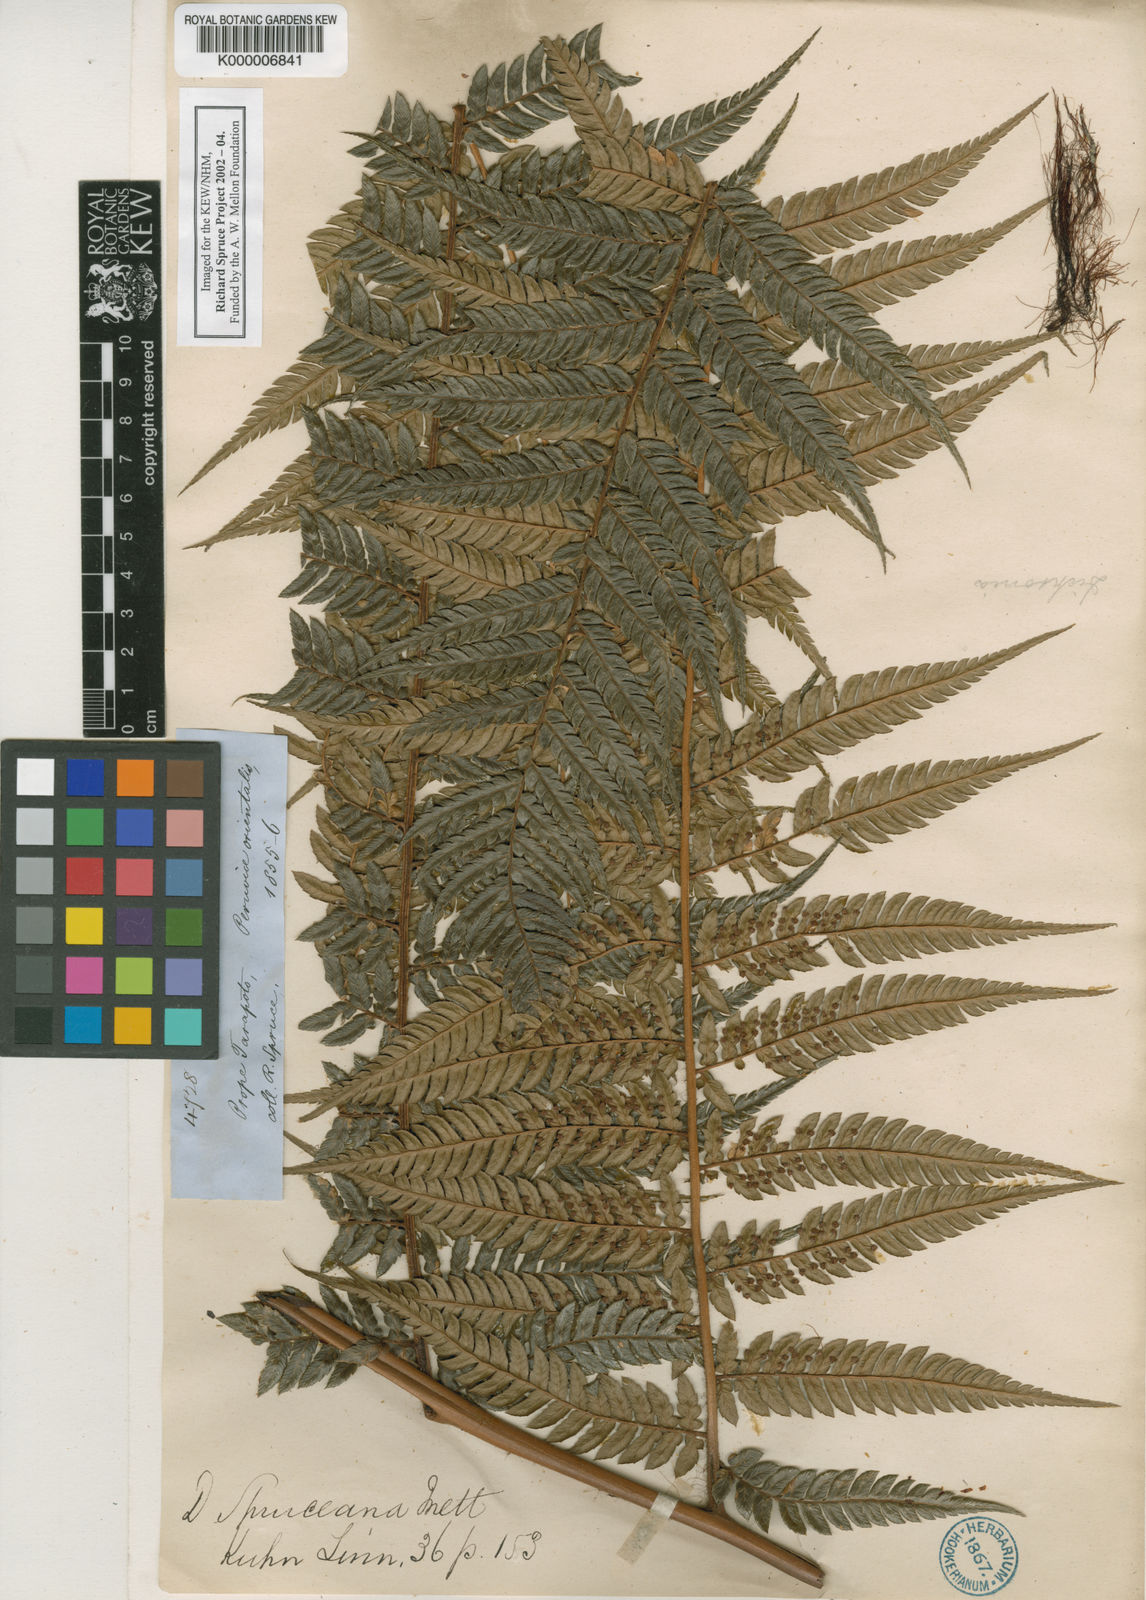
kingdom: Plantae
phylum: Tracheophyta
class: Polypodiopsida
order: Cyatheales
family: Dicksoniaceae
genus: Dicksonia
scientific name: Dicksonia
